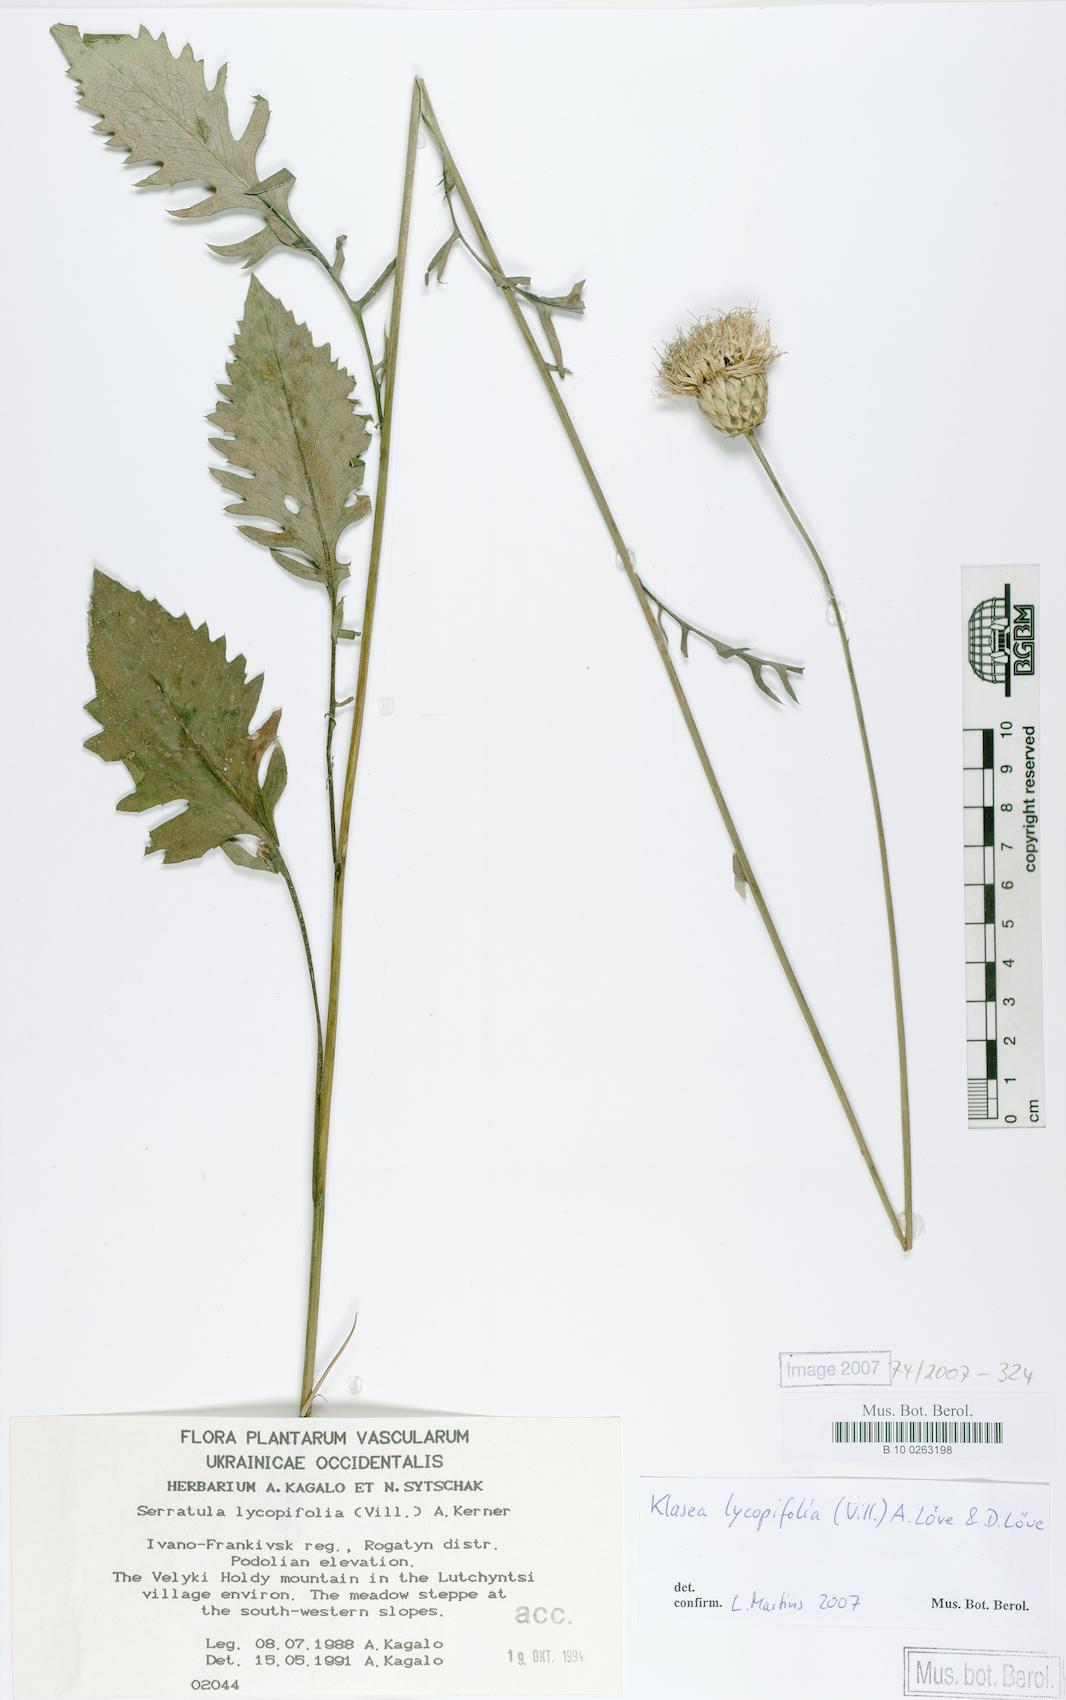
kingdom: Plantae
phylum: Tracheophyta
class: Magnoliopsida
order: Asterales
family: Asteraceae
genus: Klasea
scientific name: Klasea lycopifolia
